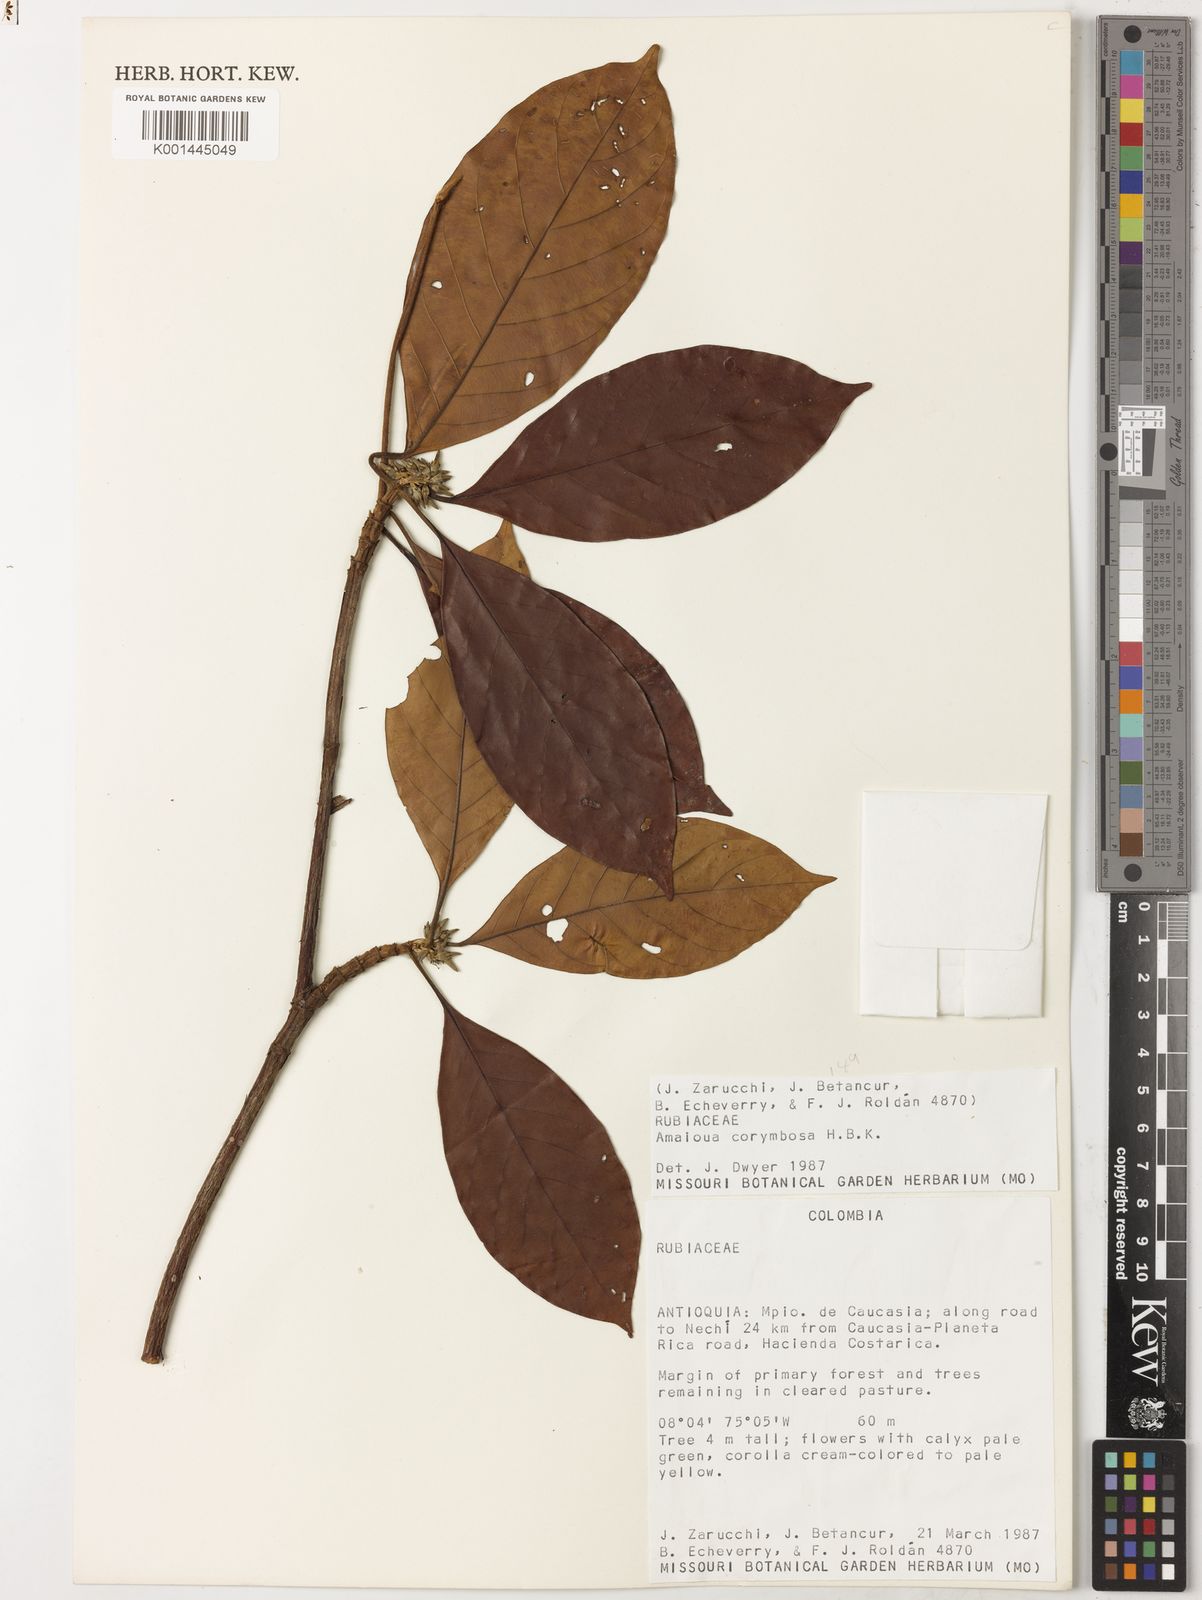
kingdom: Plantae
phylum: Tracheophyta
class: Magnoliopsida
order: Gentianales
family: Rubiaceae
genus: Amaioua
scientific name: Amaioua glomerulata
